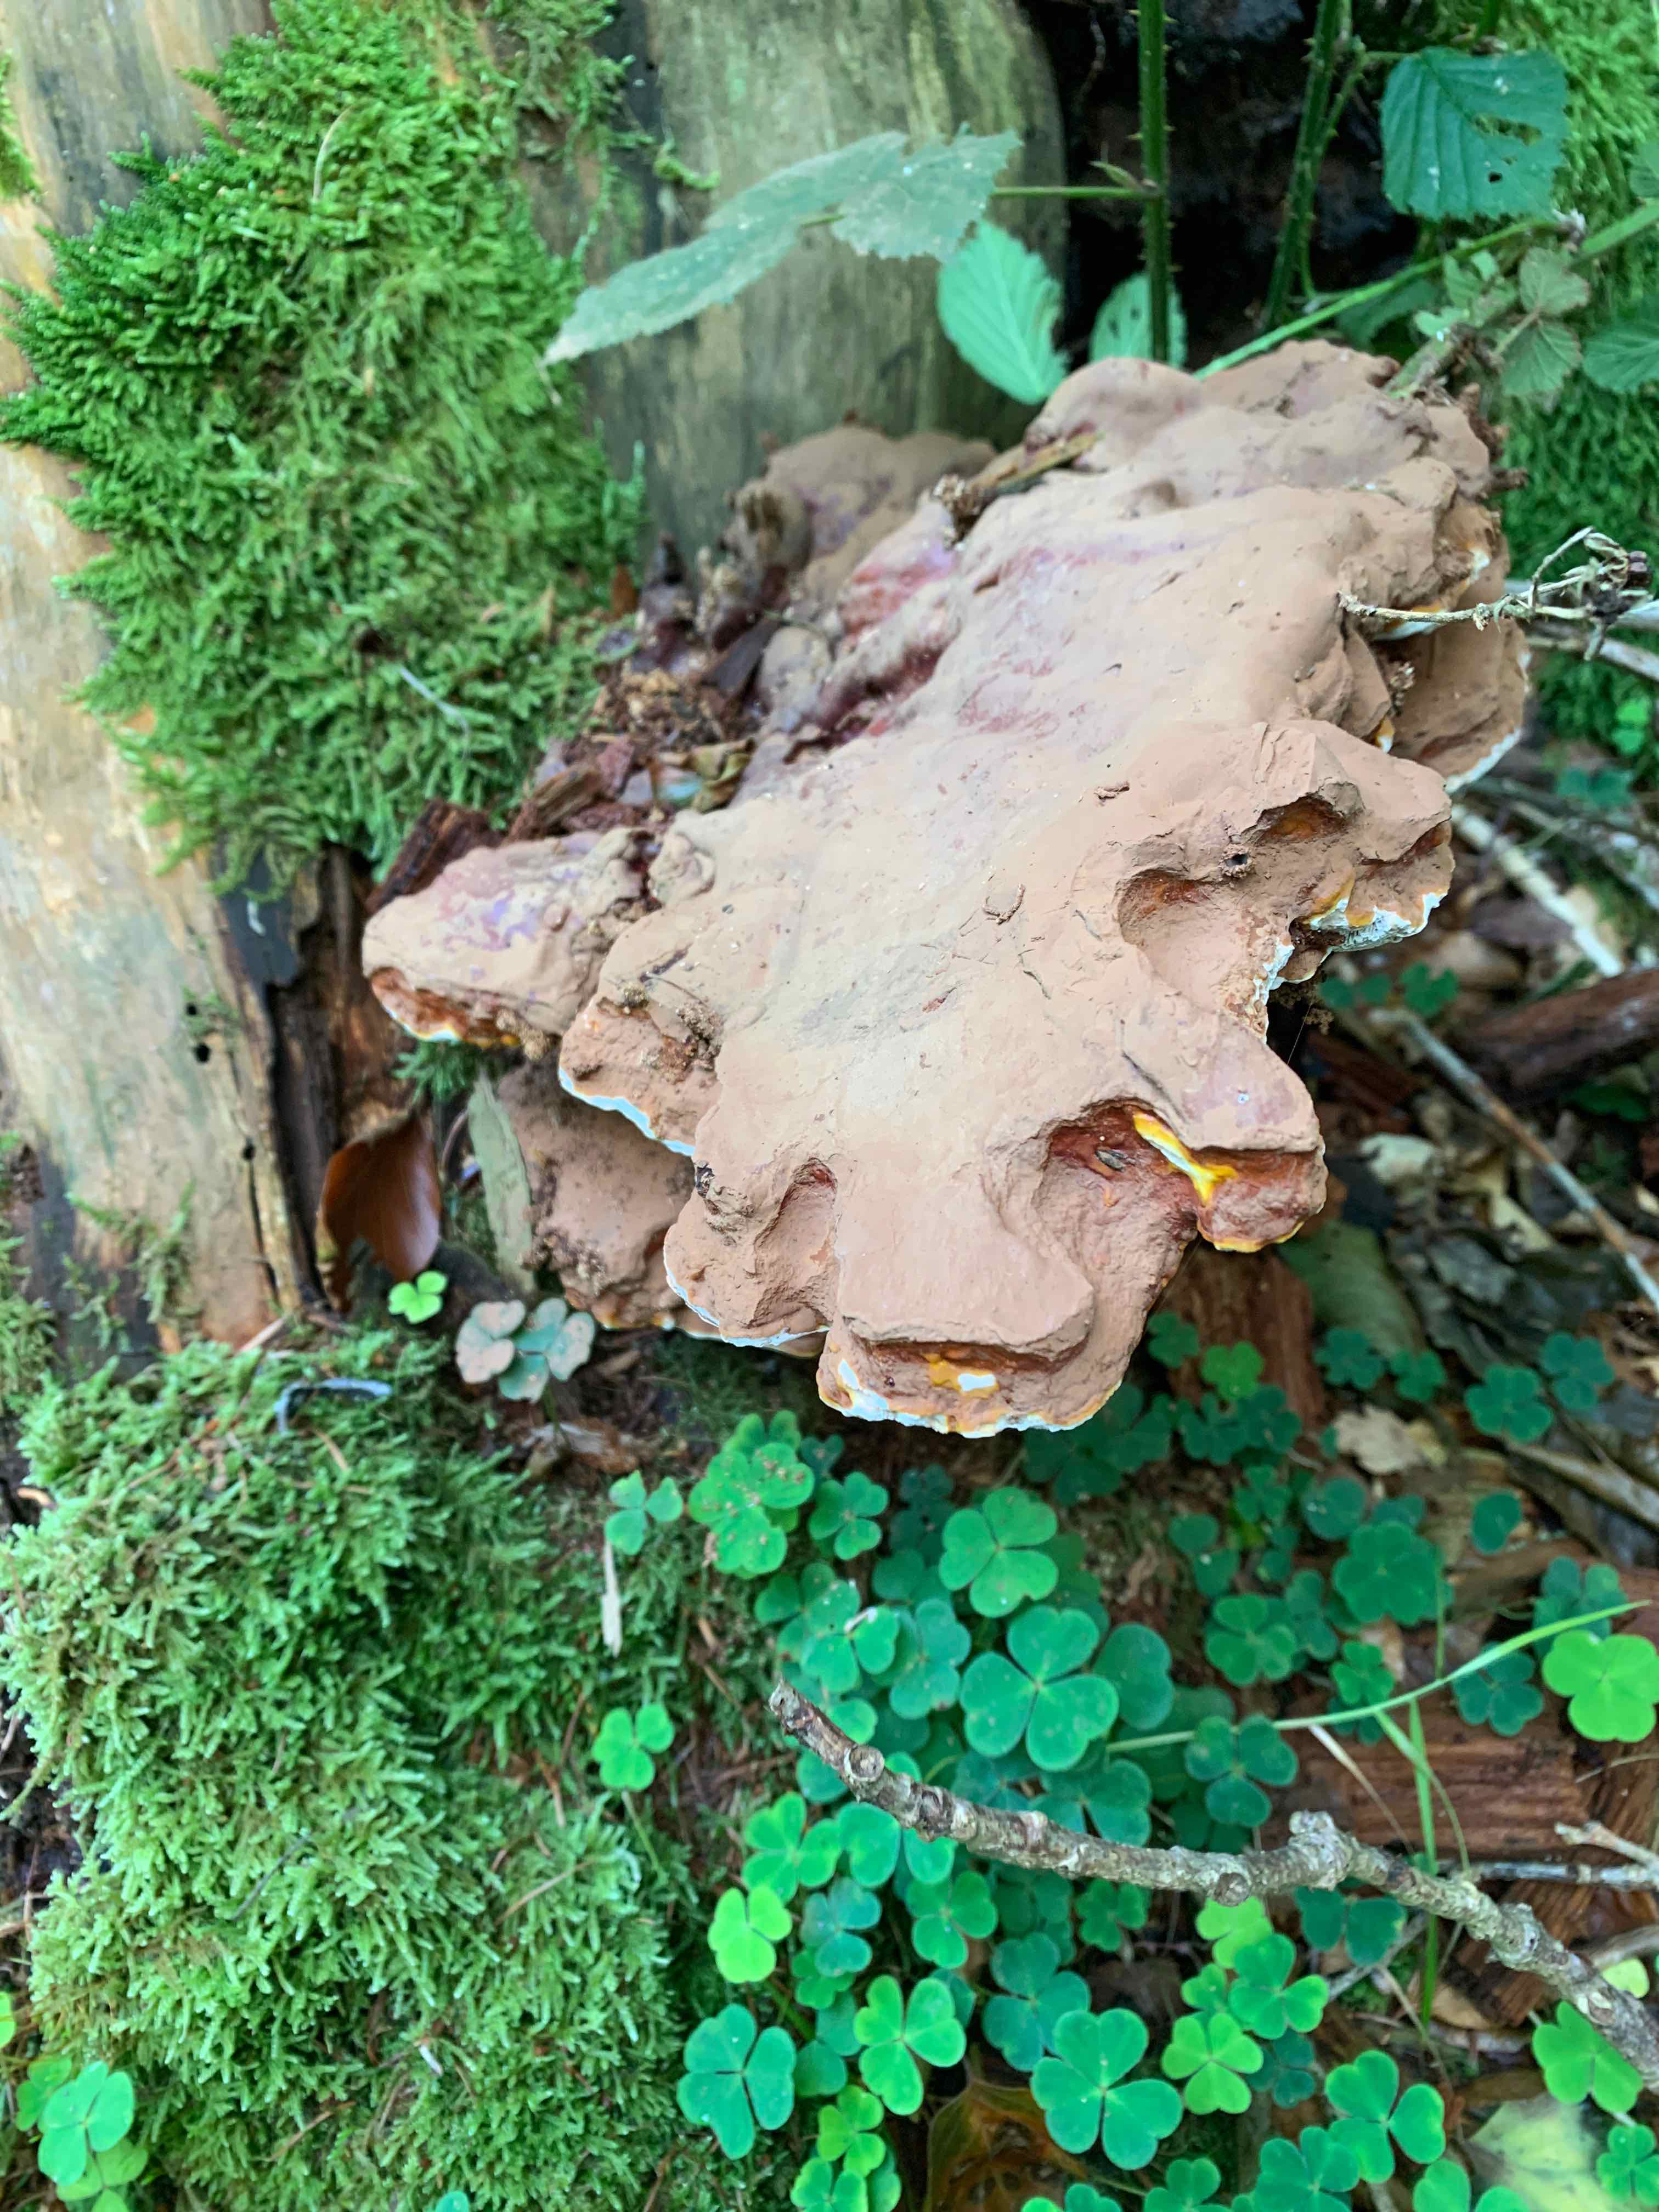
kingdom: Fungi
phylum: Basidiomycota
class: Agaricomycetes
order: Polyporales
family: Polyporaceae
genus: Ganoderma
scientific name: Ganoderma lucidum
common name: skinnende lakporesvamp
